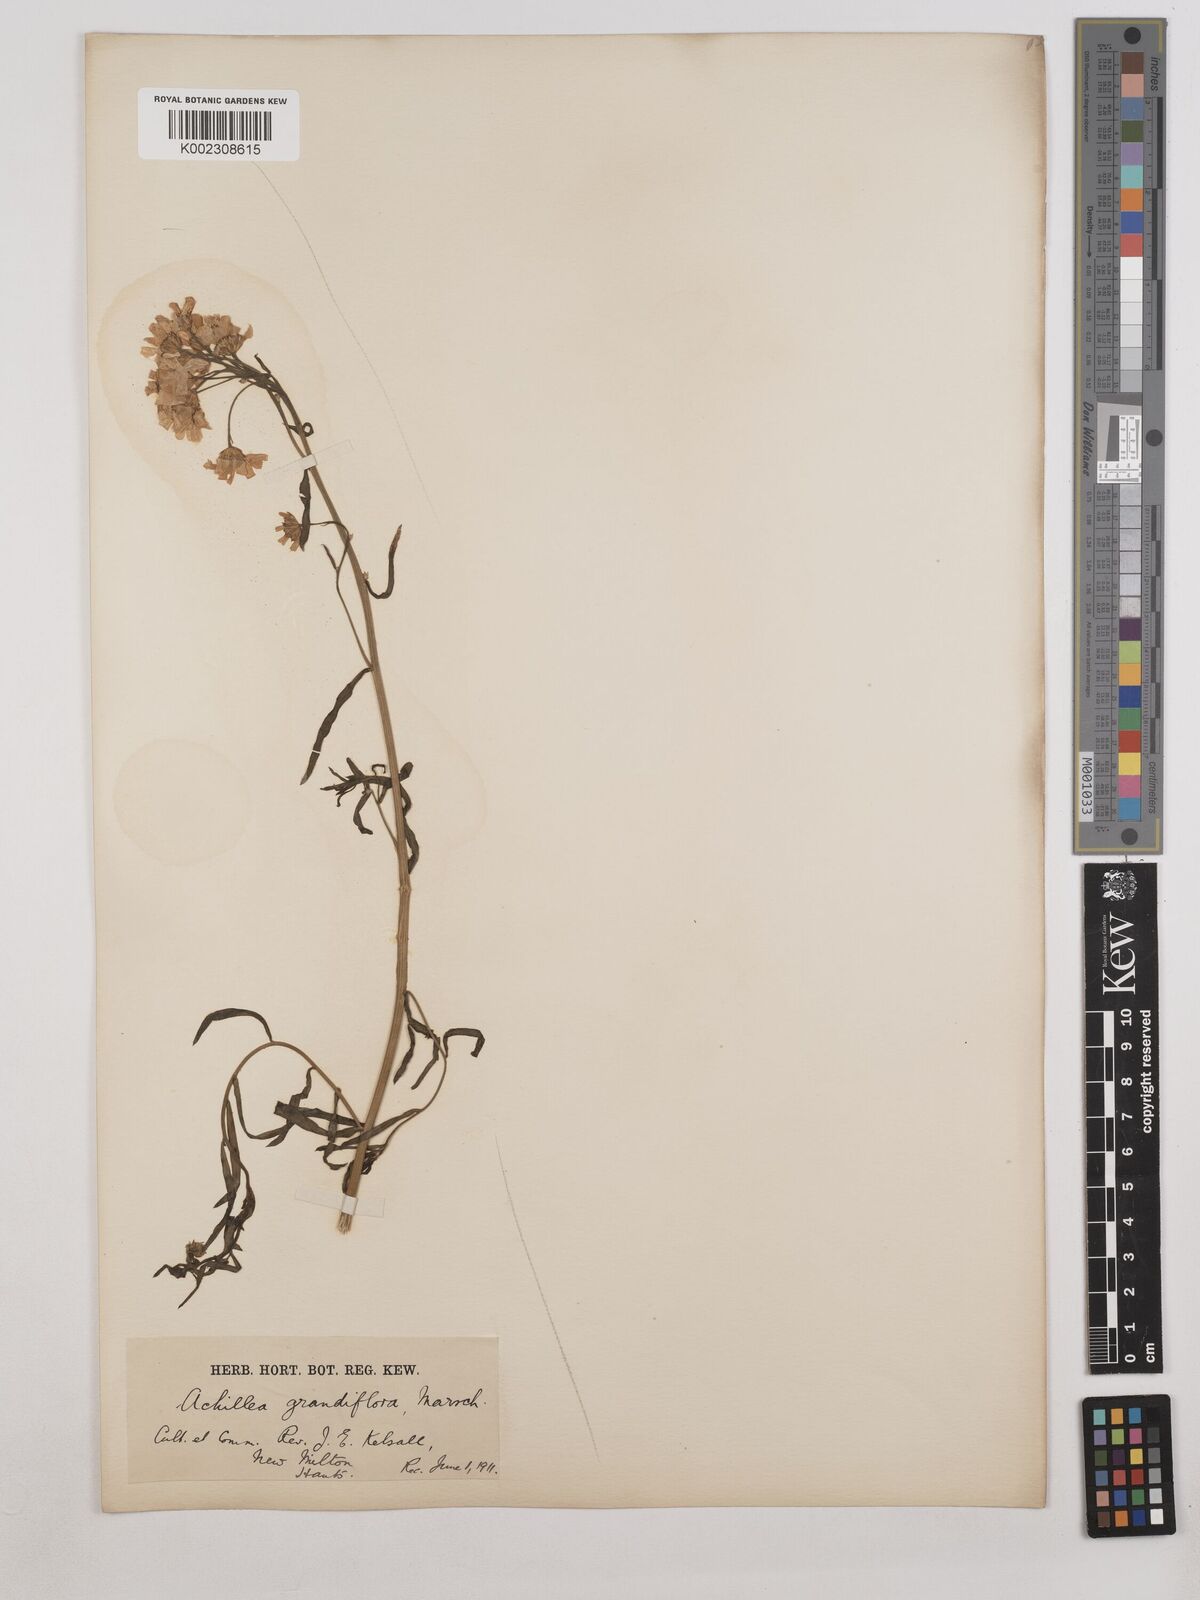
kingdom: Plantae
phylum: Tracheophyta
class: Magnoliopsida
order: Asterales
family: Asteraceae
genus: Achillea
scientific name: Achillea grandifolia
